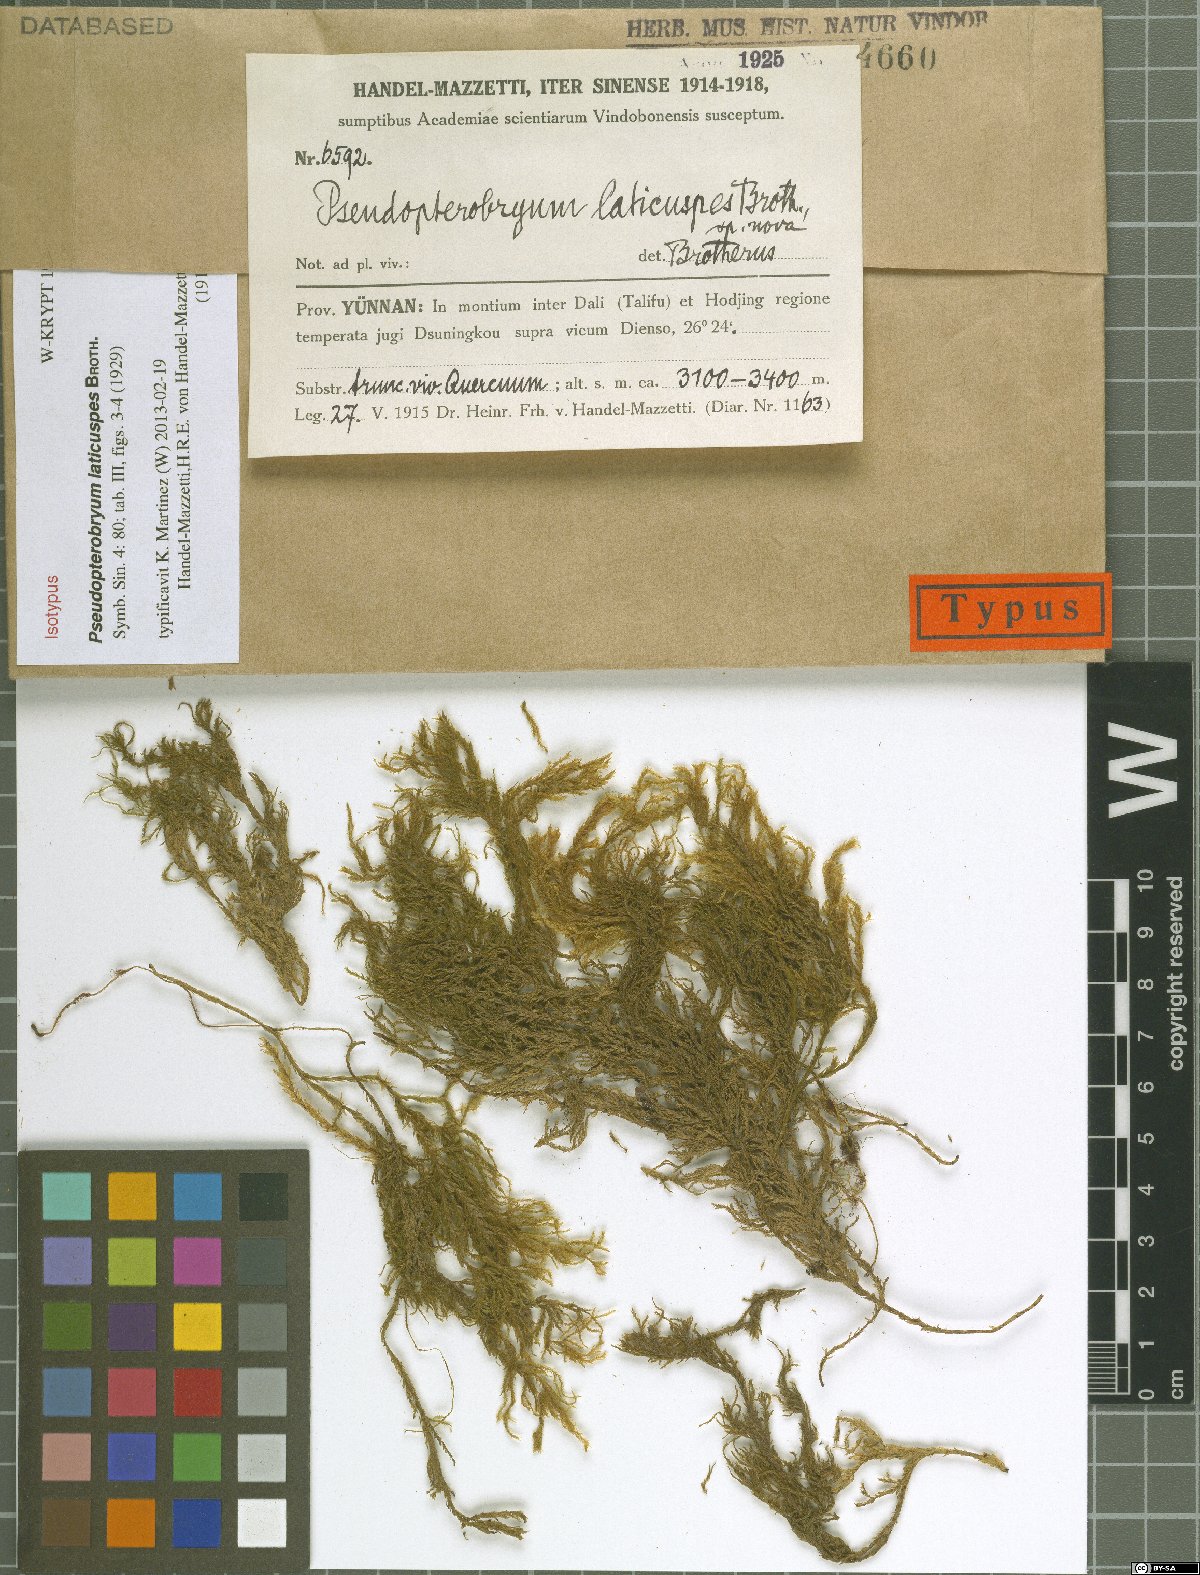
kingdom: Plantae
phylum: Bryophyta
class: Bryopsida
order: Hypnales
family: Neckeraceae
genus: Pseudopterobryum
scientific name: Pseudopterobryum laticuspis
